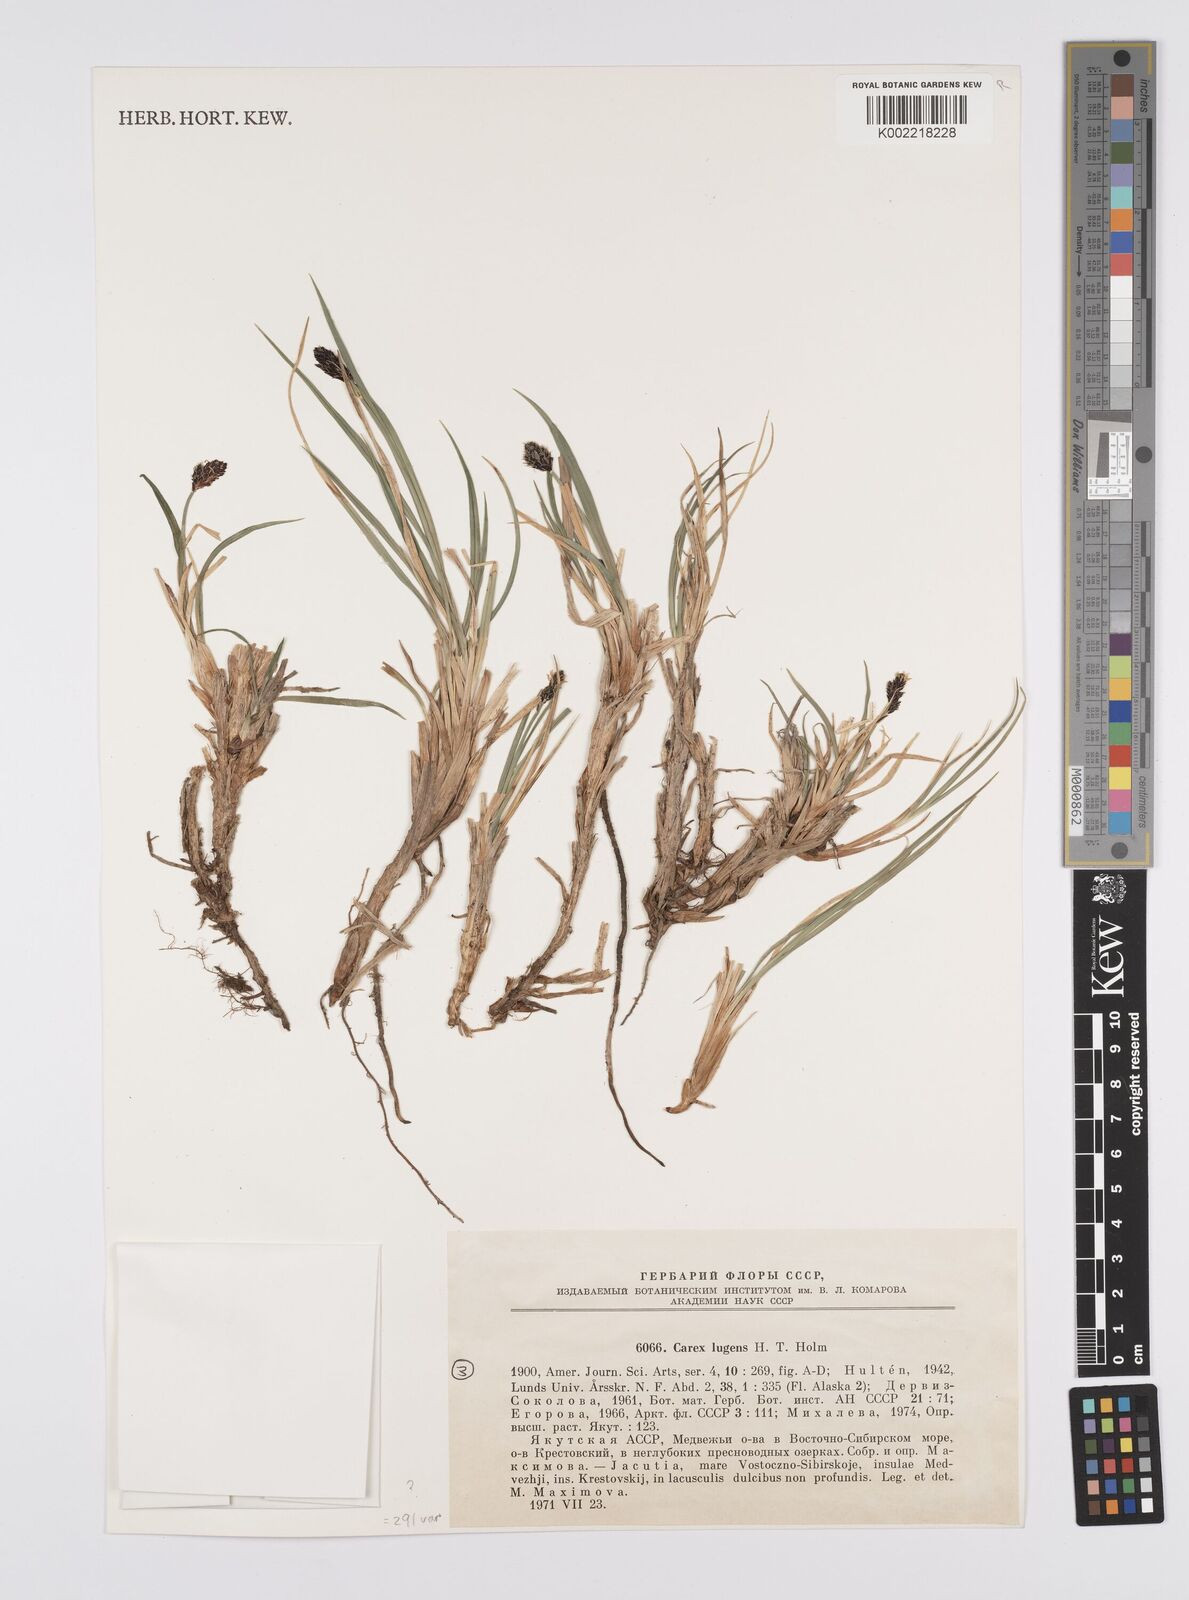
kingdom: Plantae
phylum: Tracheophyta
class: Liliopsida
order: Poales
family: Cyperaceae
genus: Carex
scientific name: Carex bigelowii
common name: Stiff sedge
